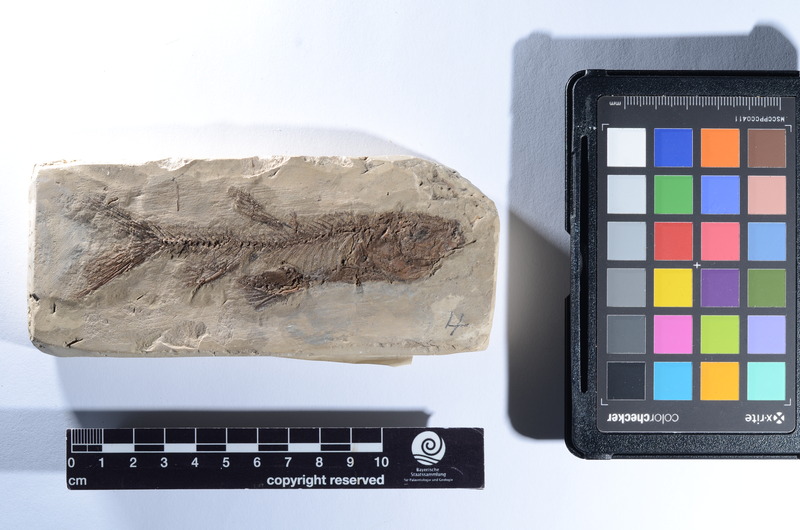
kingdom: Animalia
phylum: Chordata
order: Cypriniformes
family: Cyprinidae
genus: Tinca
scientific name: Tinca fuscata
